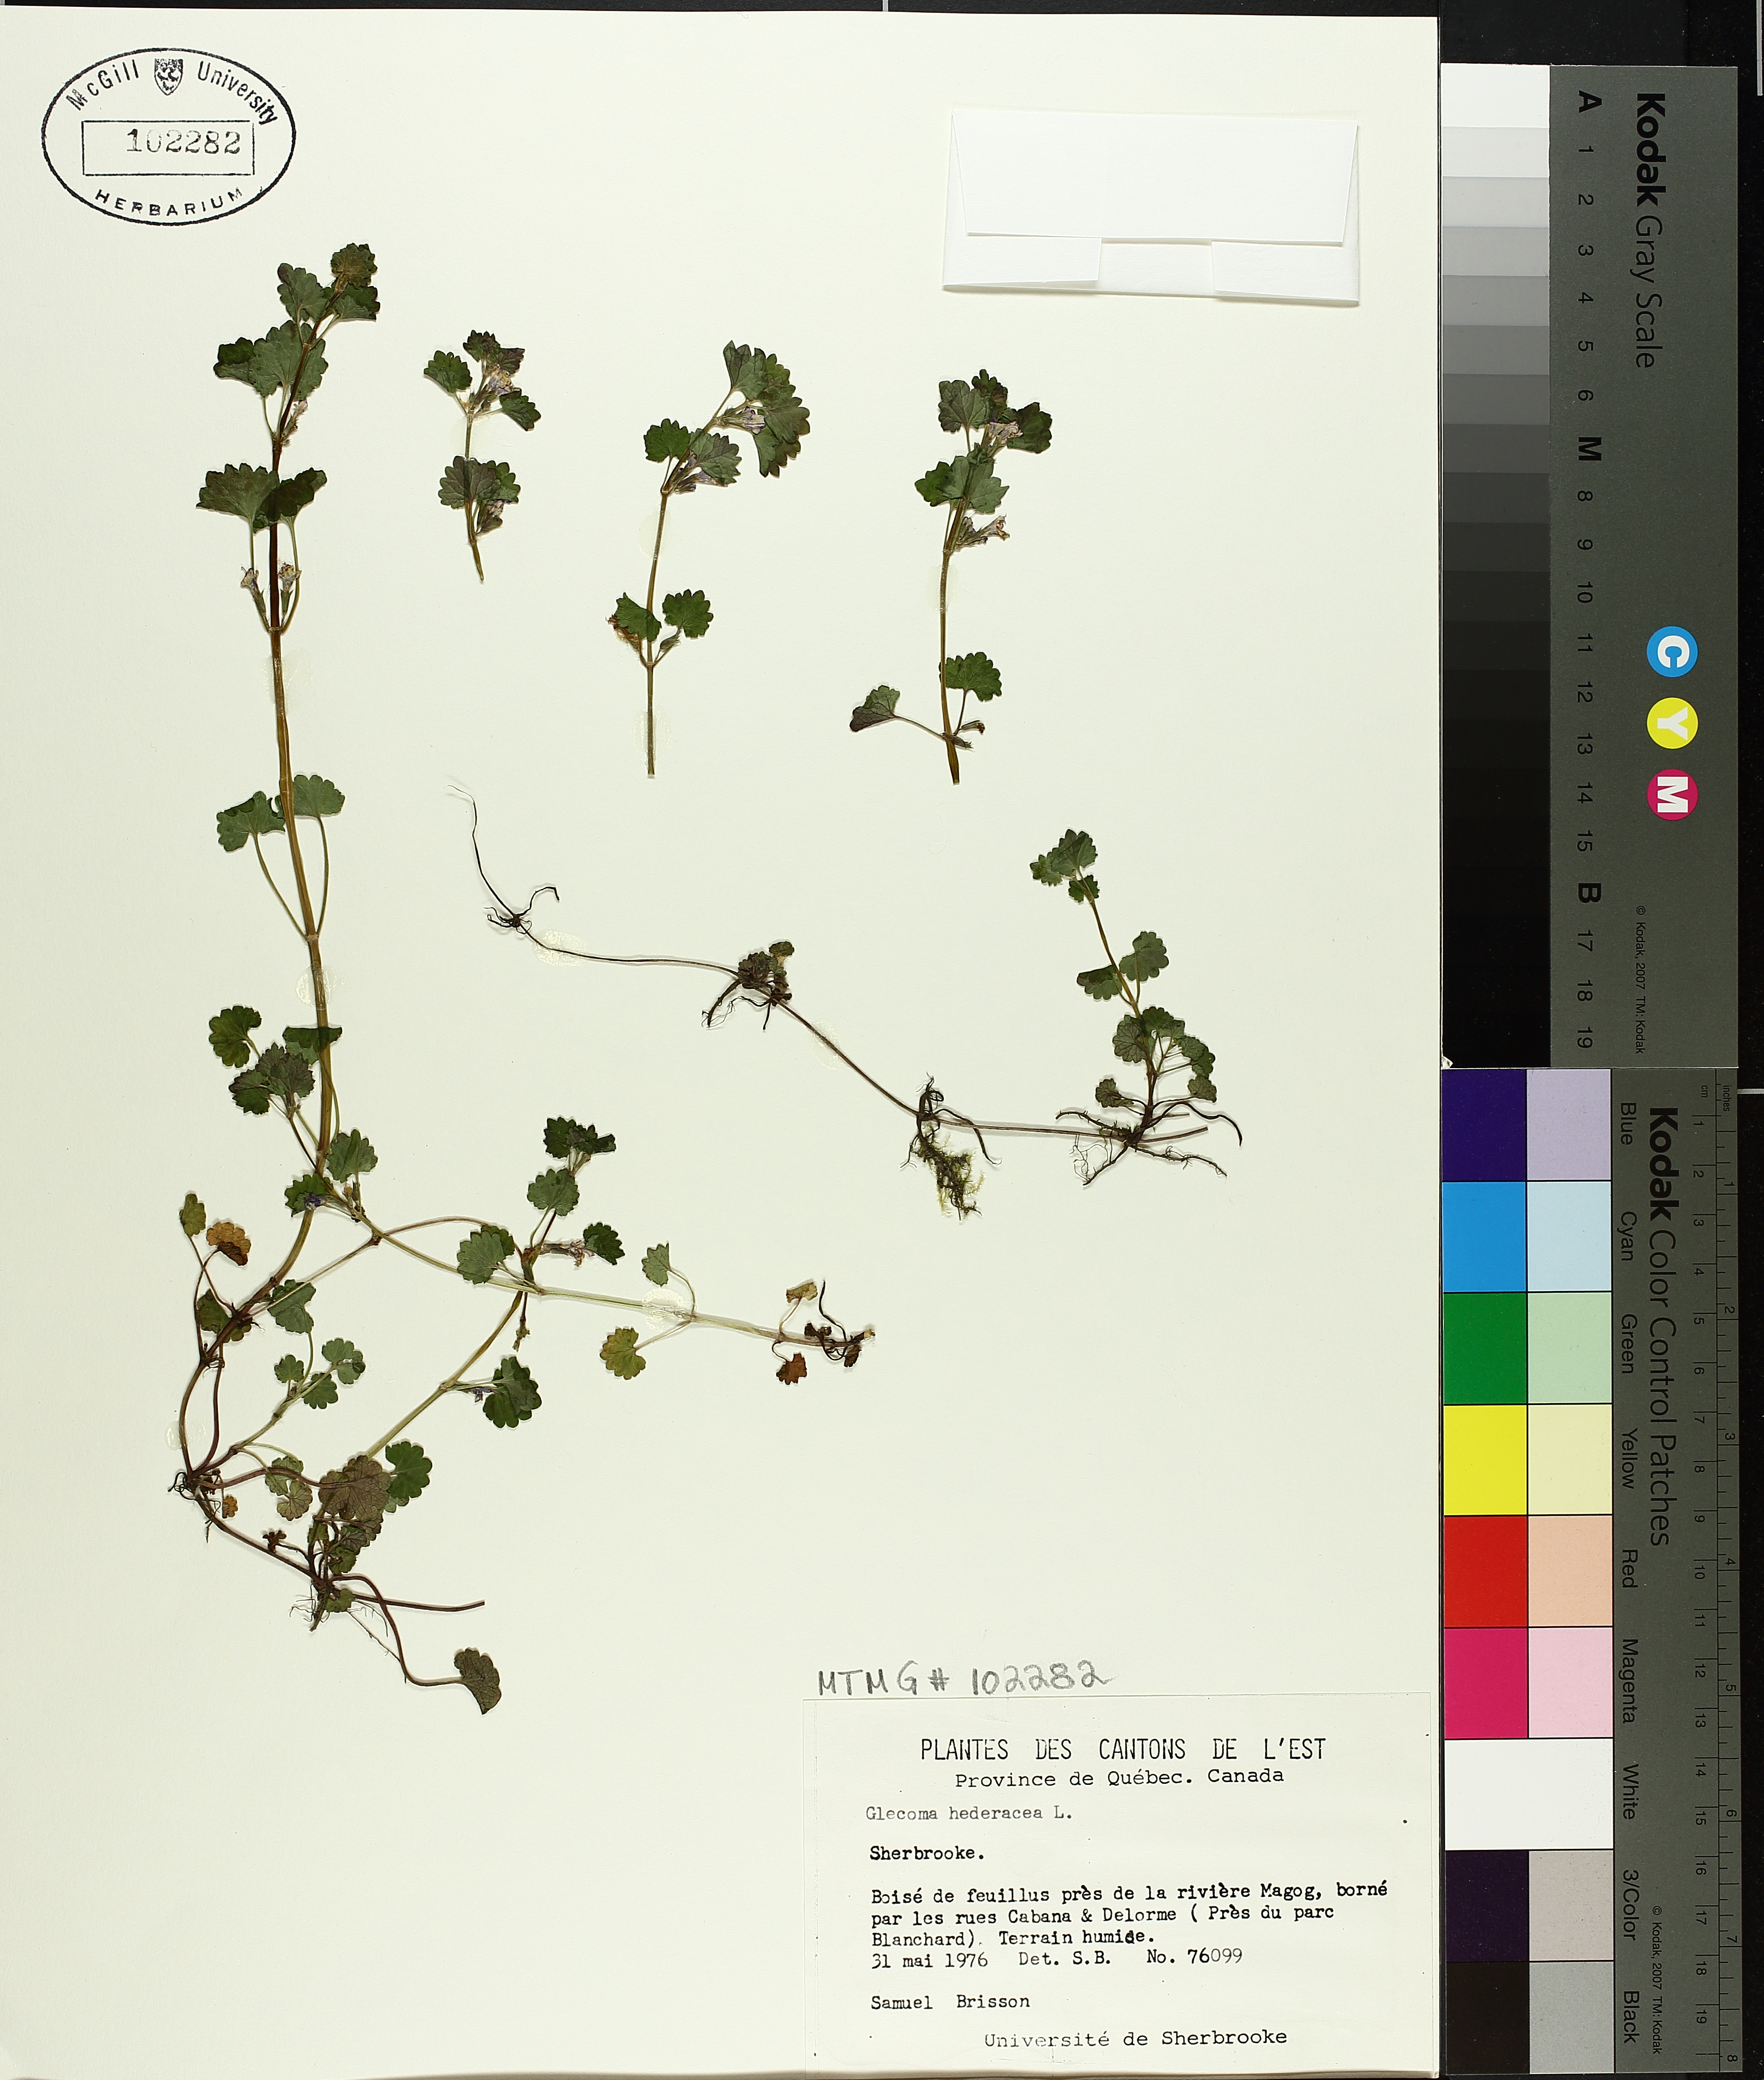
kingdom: Plantae
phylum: Tracheophyta
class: Magnoliopsida
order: Lamiales
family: Lamiaceae
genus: Glechoma
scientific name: Glechoma hederacea
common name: Ground ivy
